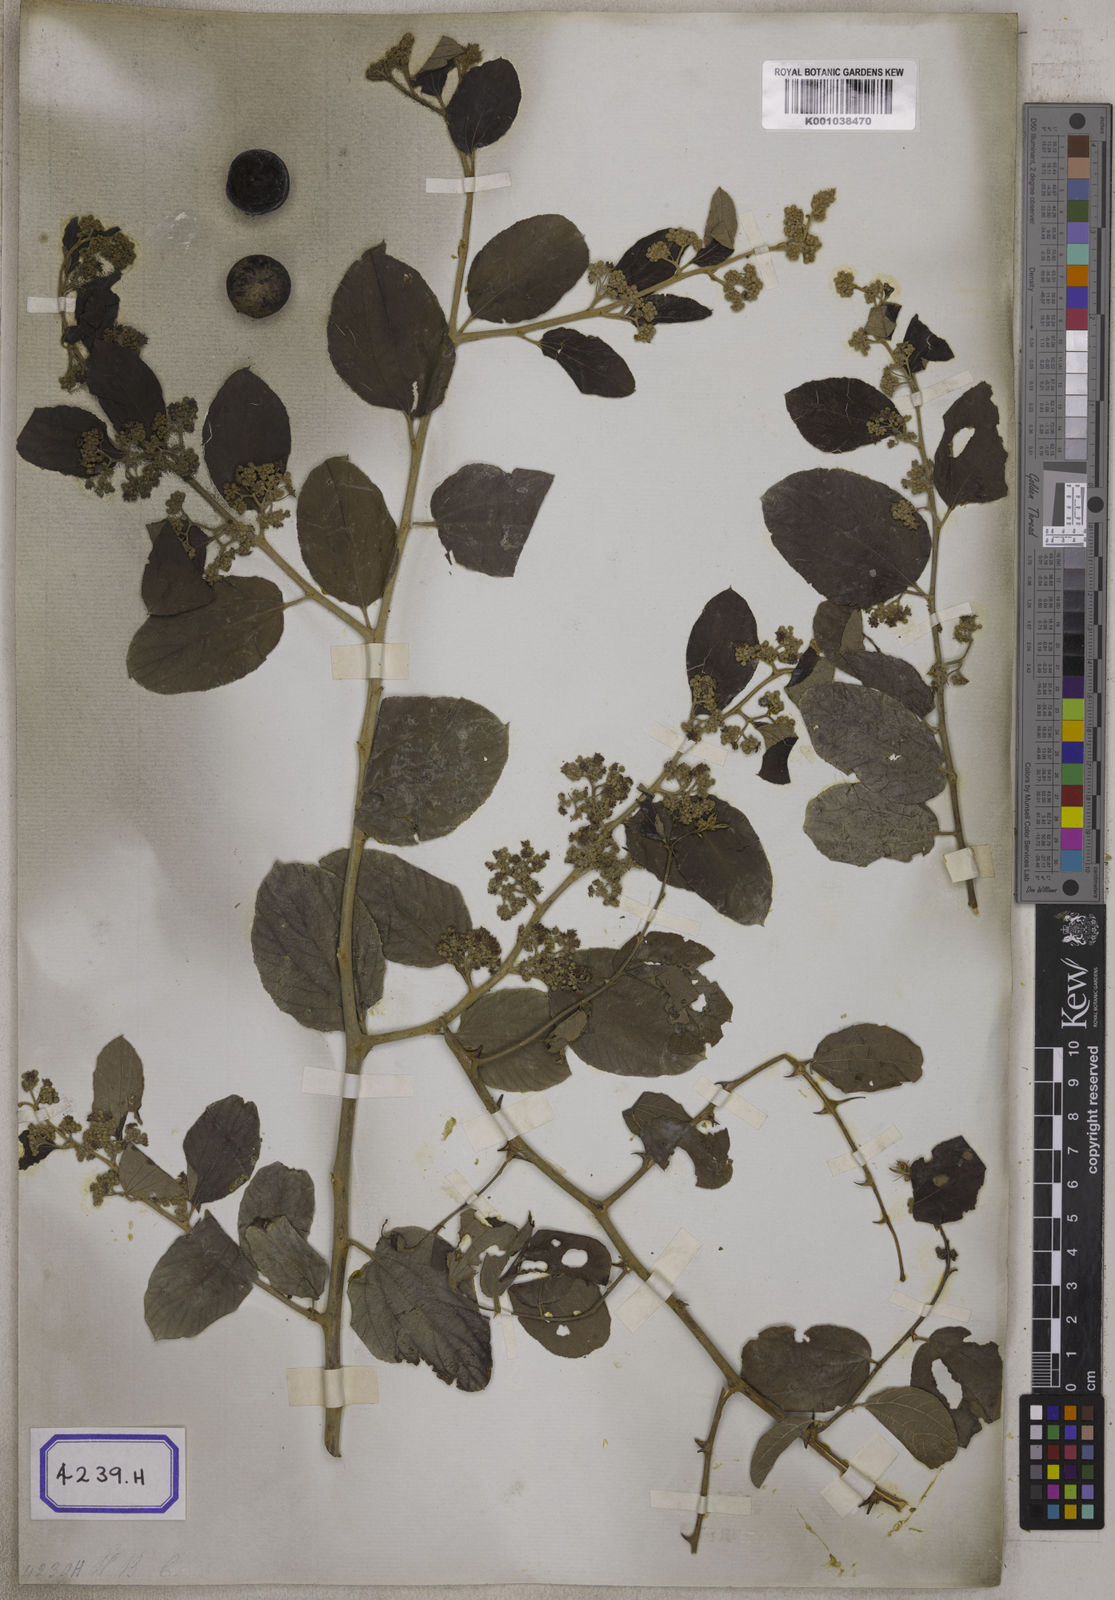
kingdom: Plantae
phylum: Tracheophyta
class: Magnoliopsida
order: Rosales
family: Rhamnaceae
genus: Ziziphus
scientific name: Ziziphus xylopyrus
